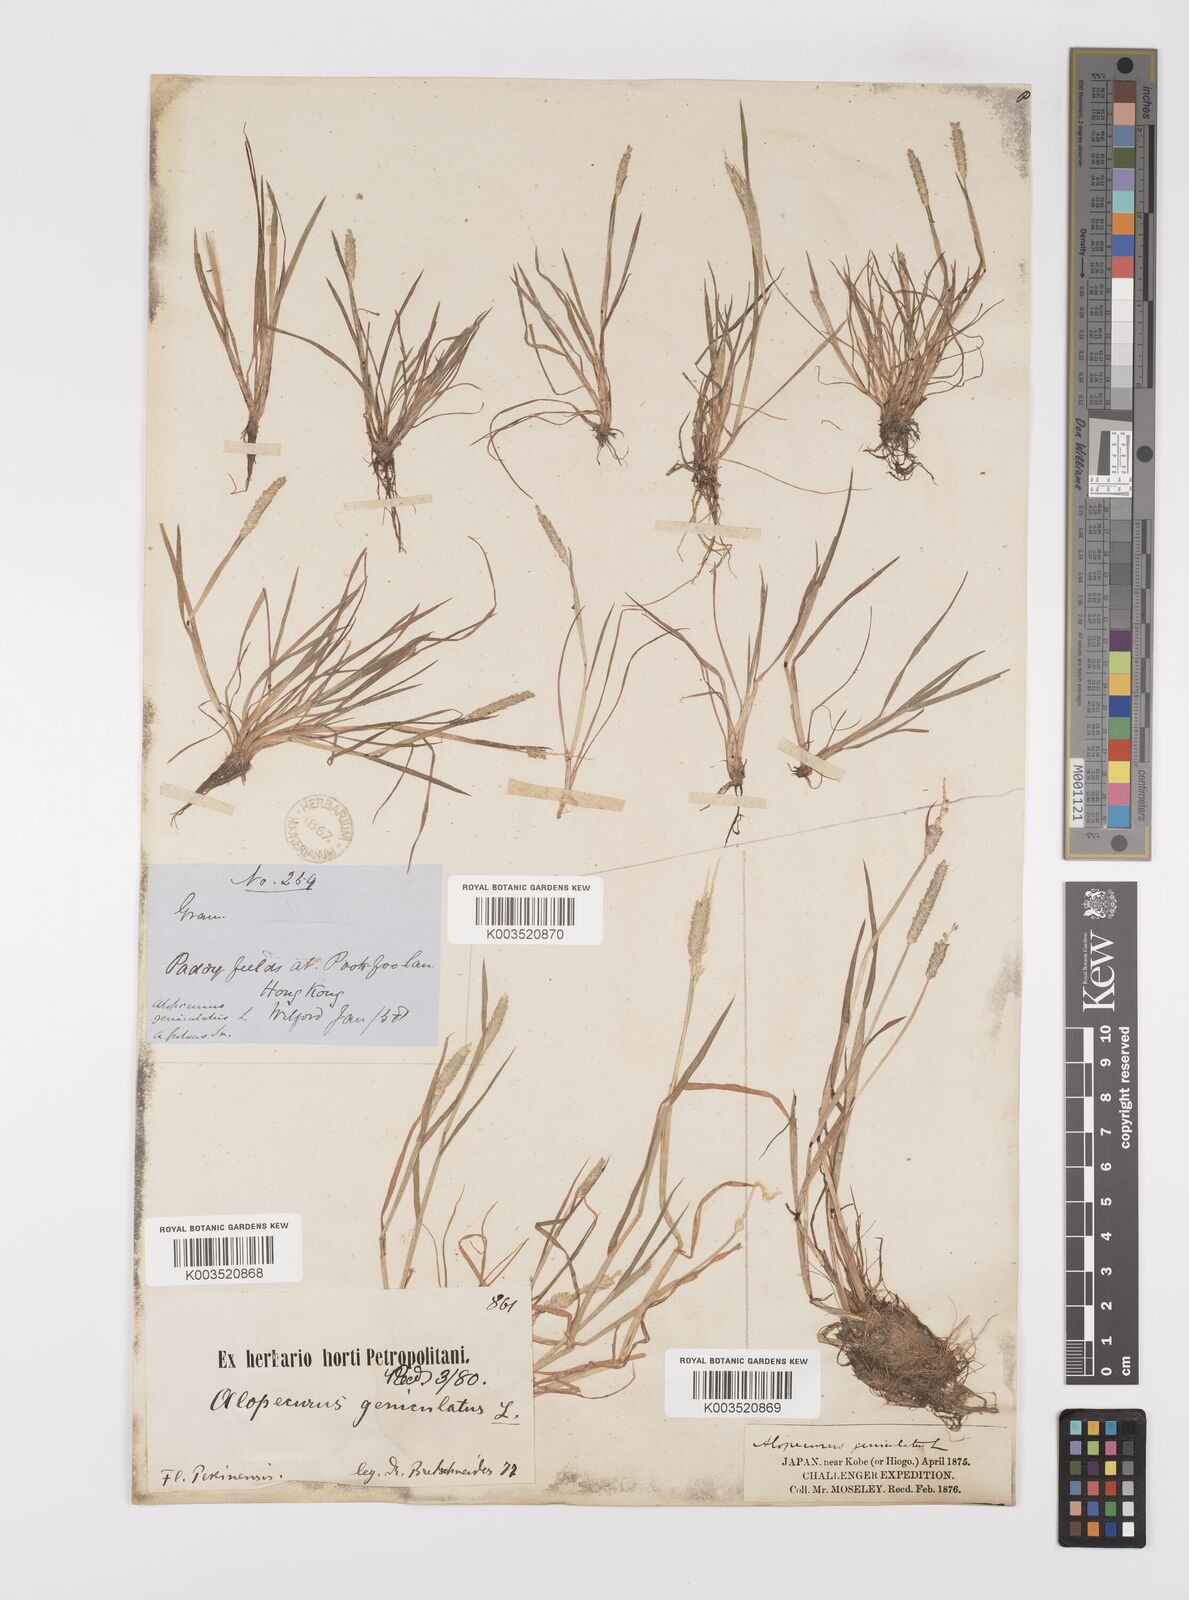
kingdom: Plantae
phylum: Tracheophyta
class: Liliopsida
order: Poales
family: Poaceae
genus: Alopecurus
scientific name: Alopecurus aequalis
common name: Orange foxtail
